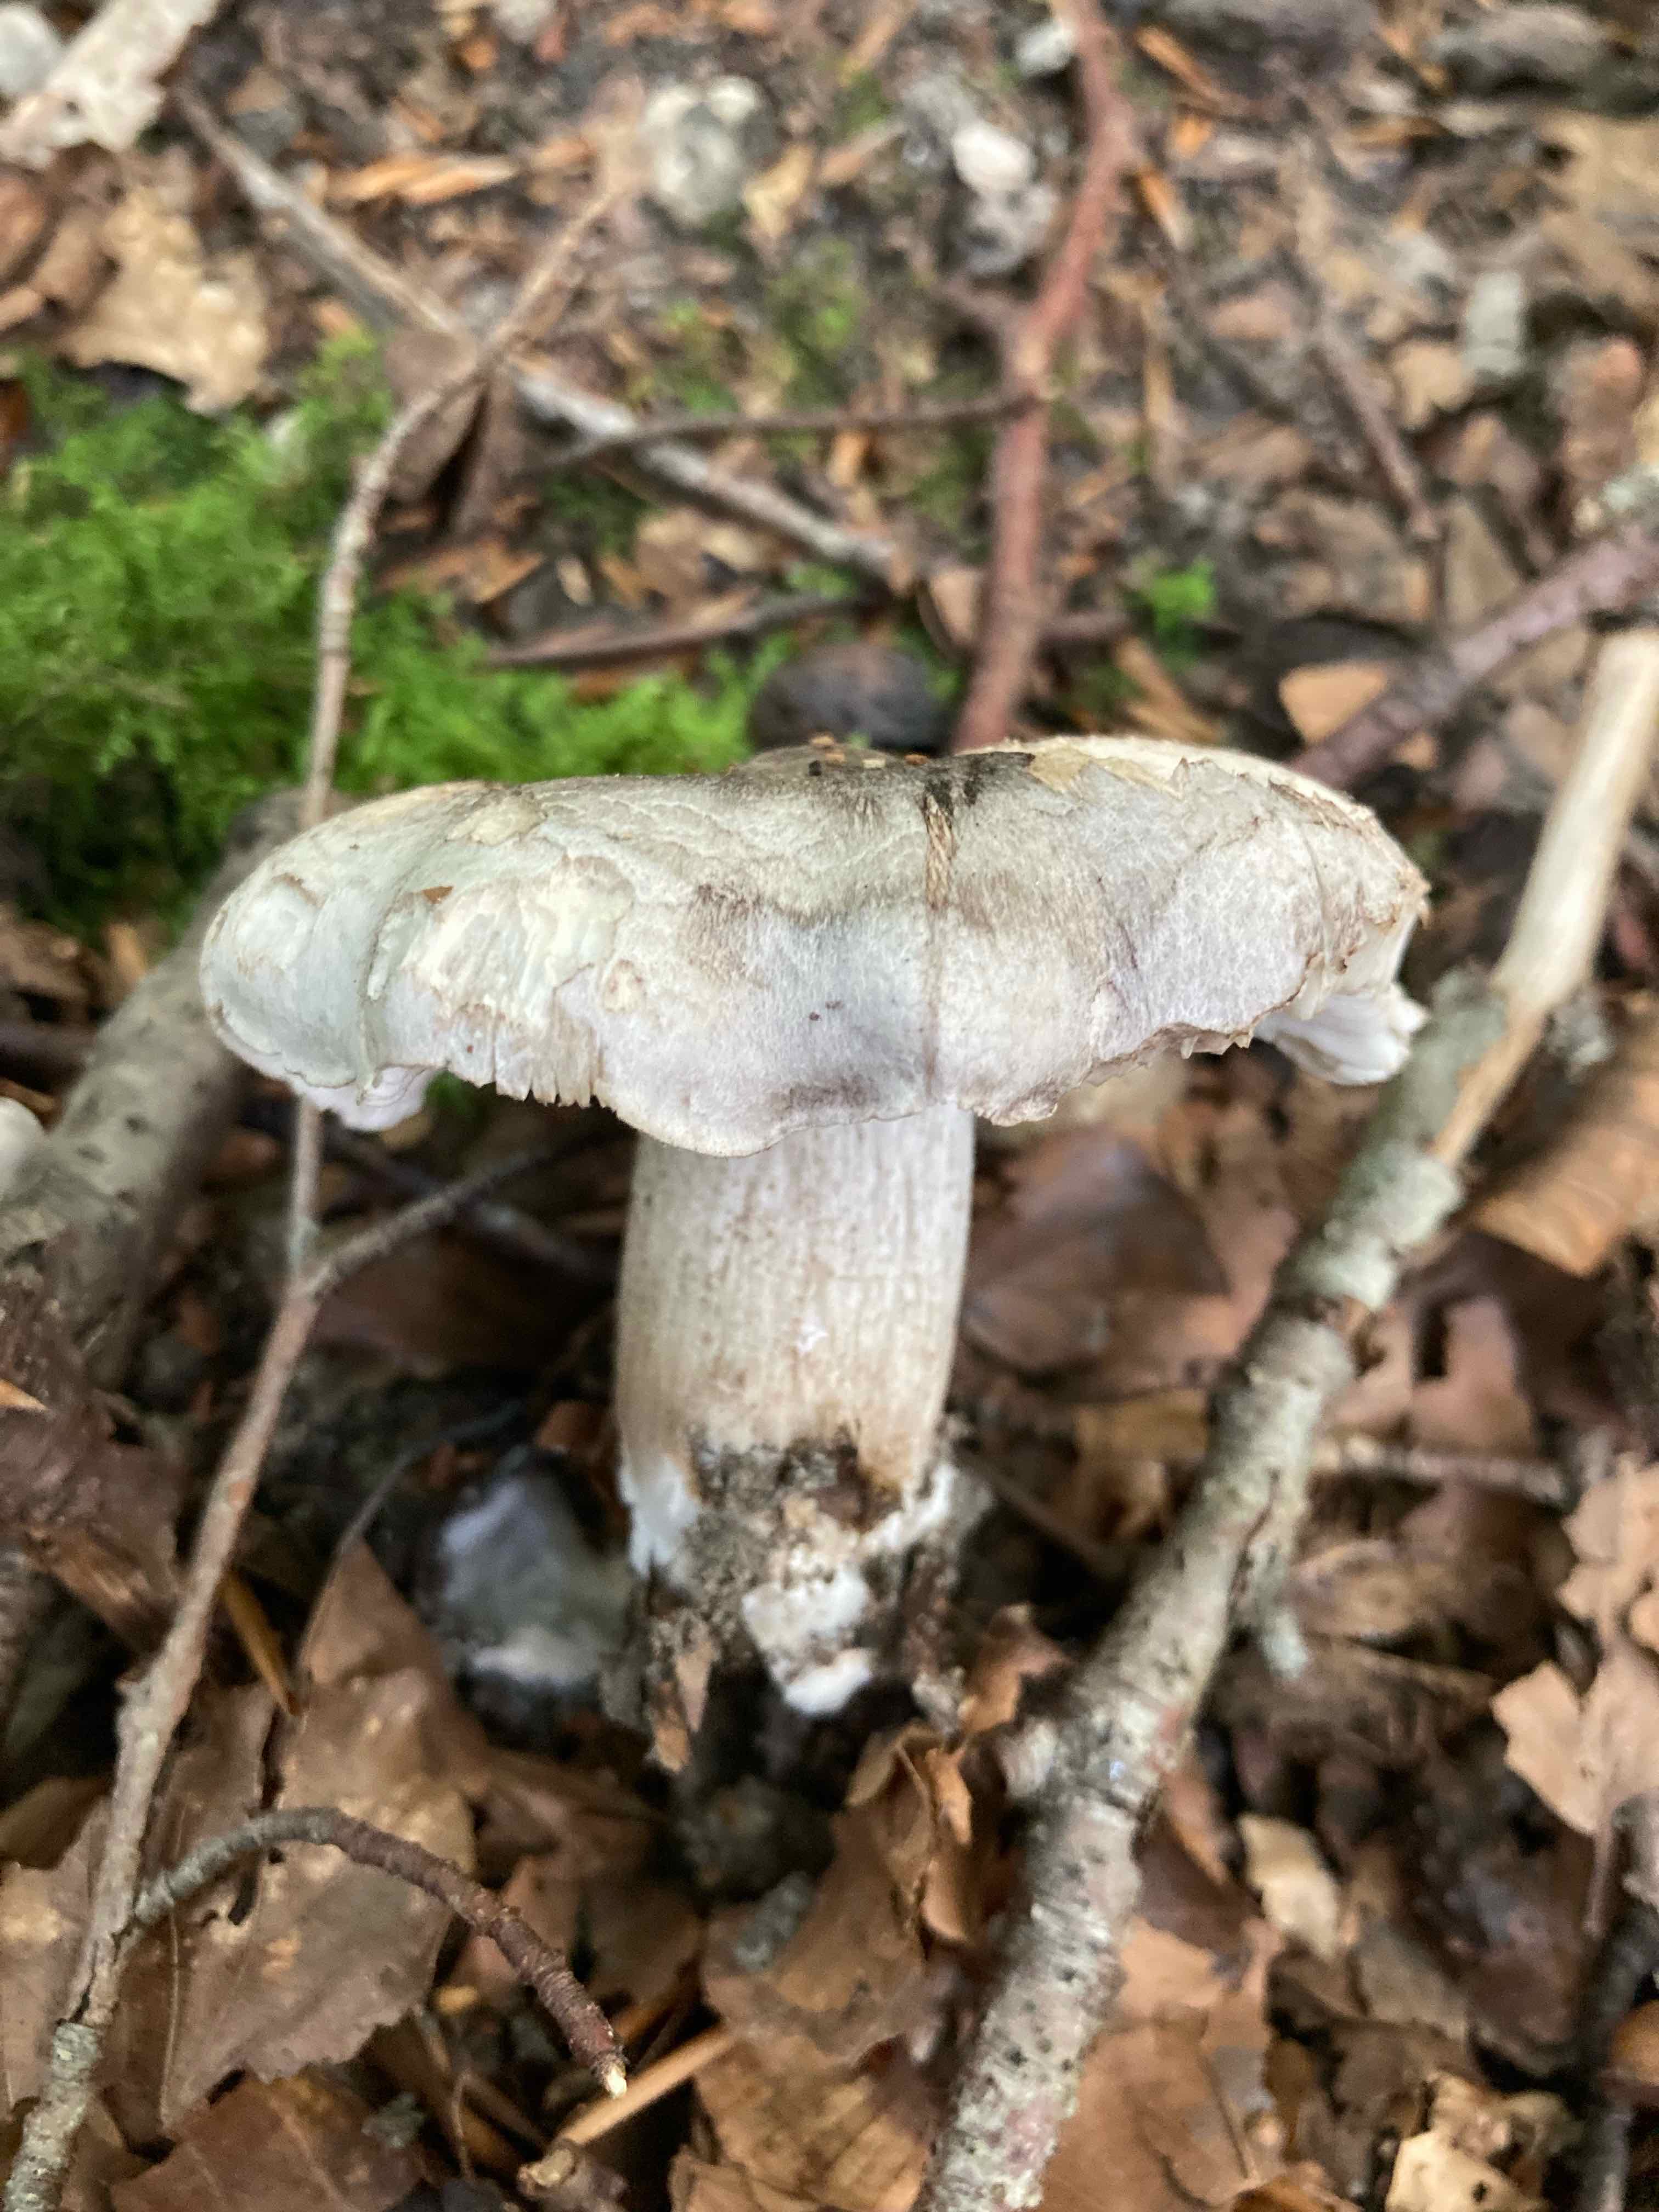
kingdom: Fungi
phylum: Basidiomycota
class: Agaricomycetes
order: Agaricales
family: Tricholomataceae
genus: Tricholoma
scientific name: Tricholoma sciodes
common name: stribet ridderhat
